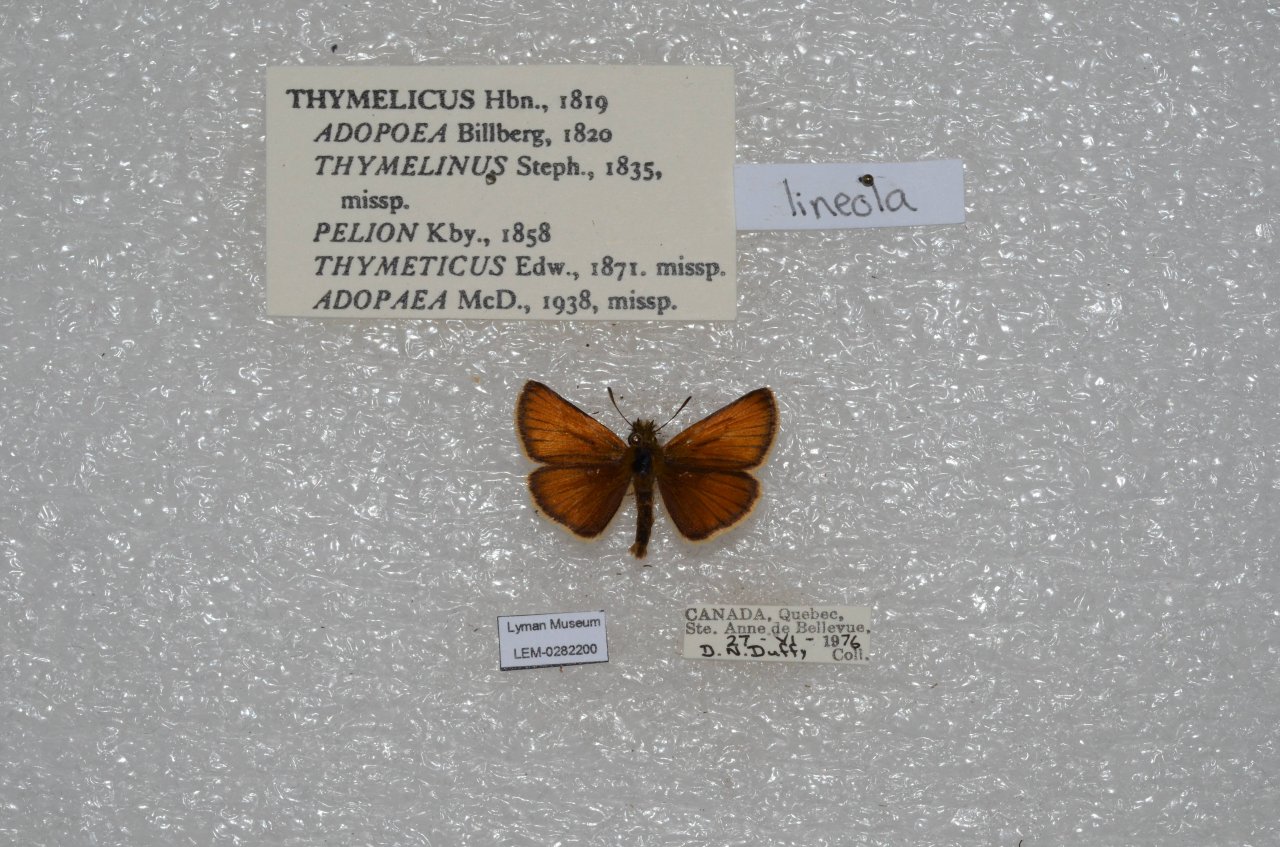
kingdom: Animalia
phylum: Arthropoda
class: Insecta
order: Lepidoptera
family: Hesperiidae
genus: Thymelicus
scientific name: Thymelicus lineola
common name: European Skipper
